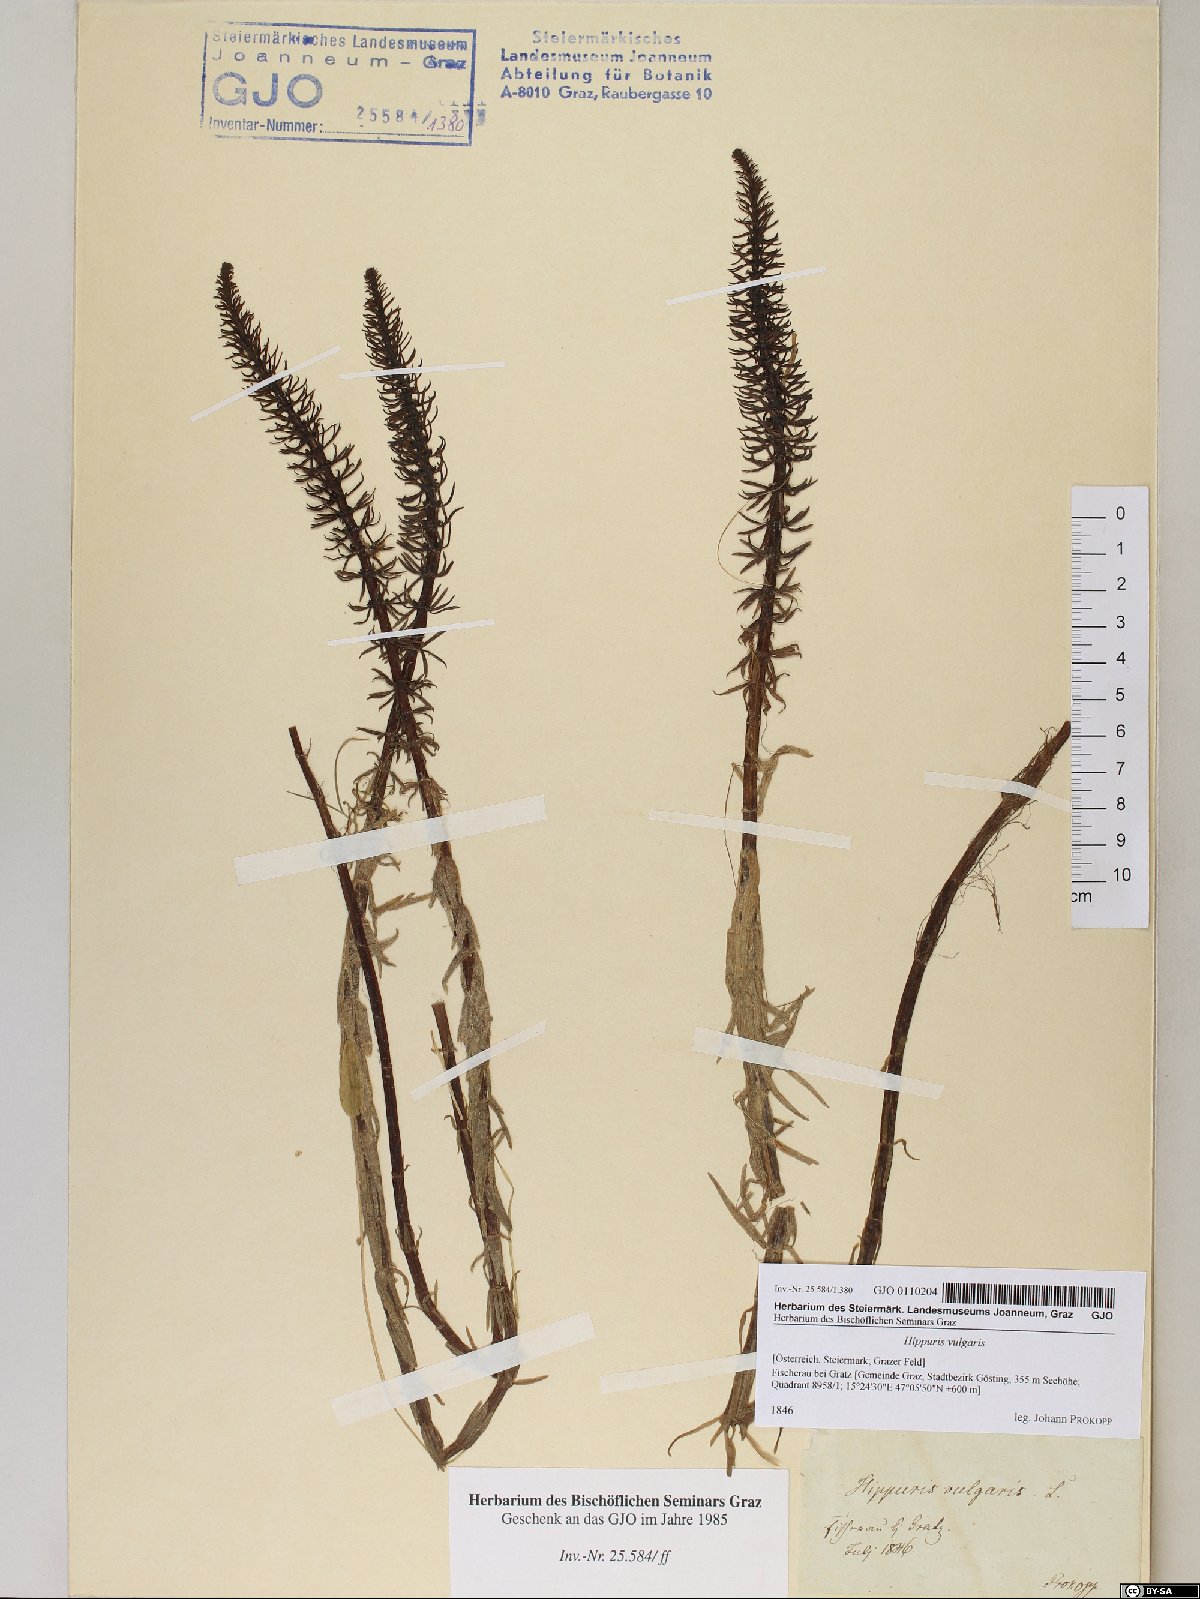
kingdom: Plantae
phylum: Tracheophyta
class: Magnoliopsida
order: Lamiales
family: Plantaginaceae
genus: Hippuris
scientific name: Hippuris vulgaris
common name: Mare's-tail
